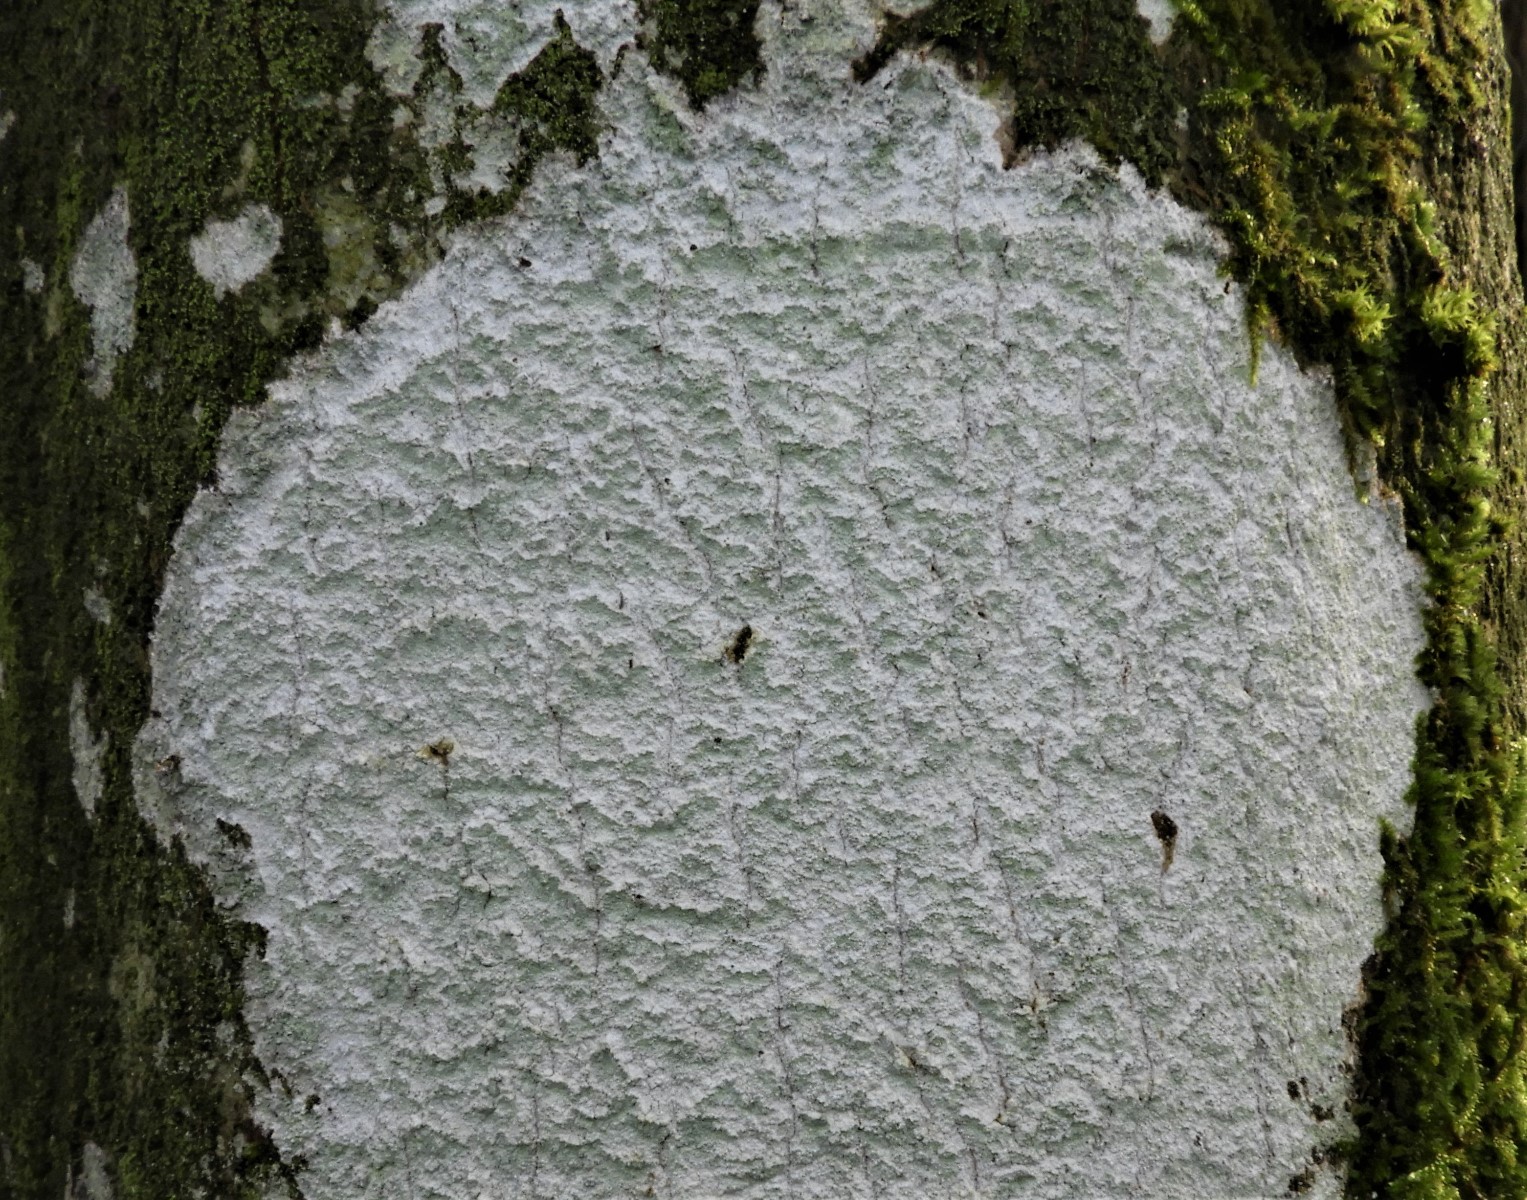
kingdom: Fungi
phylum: Ascomycota
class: Lecanoromycetes
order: Ostropales
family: Phlyctidaceae
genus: Phlyctis
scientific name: Phlyctis argena
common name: almindelig sølvlav
